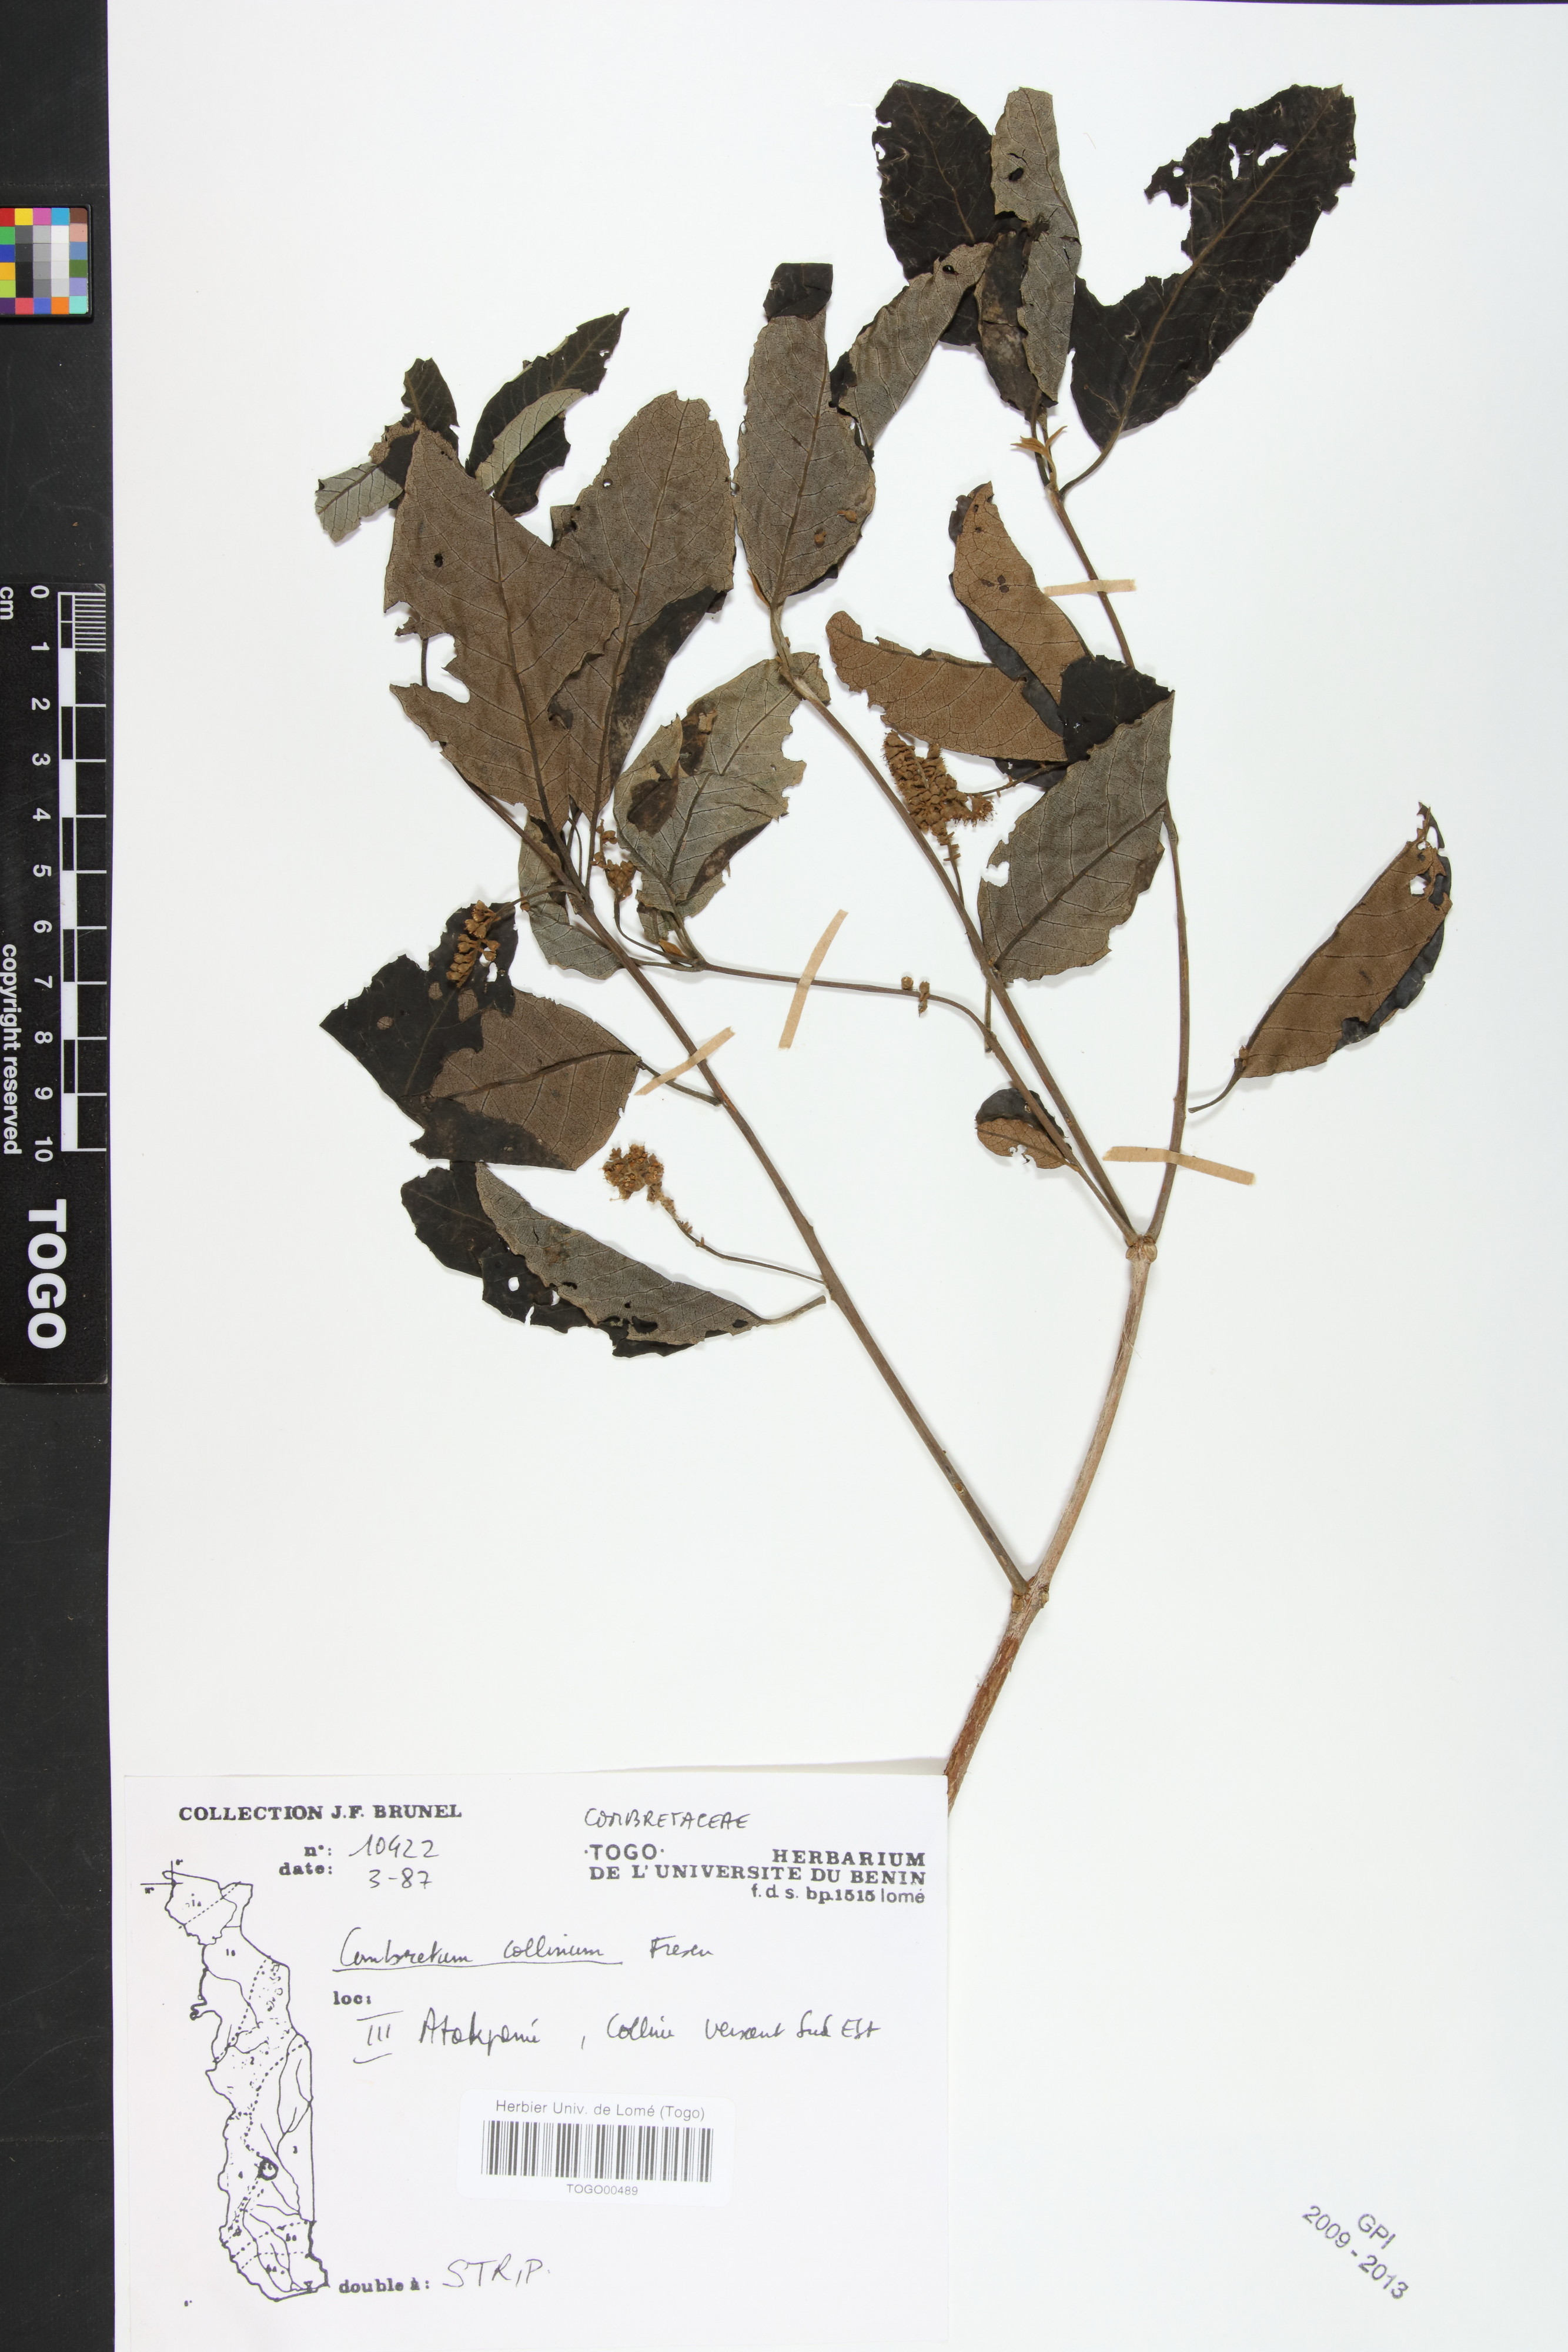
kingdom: Plantae
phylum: Tracheophyta
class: Magnoliopsida
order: Myrtales
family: Combretaceae
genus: Combretum
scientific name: Combretum collinum
